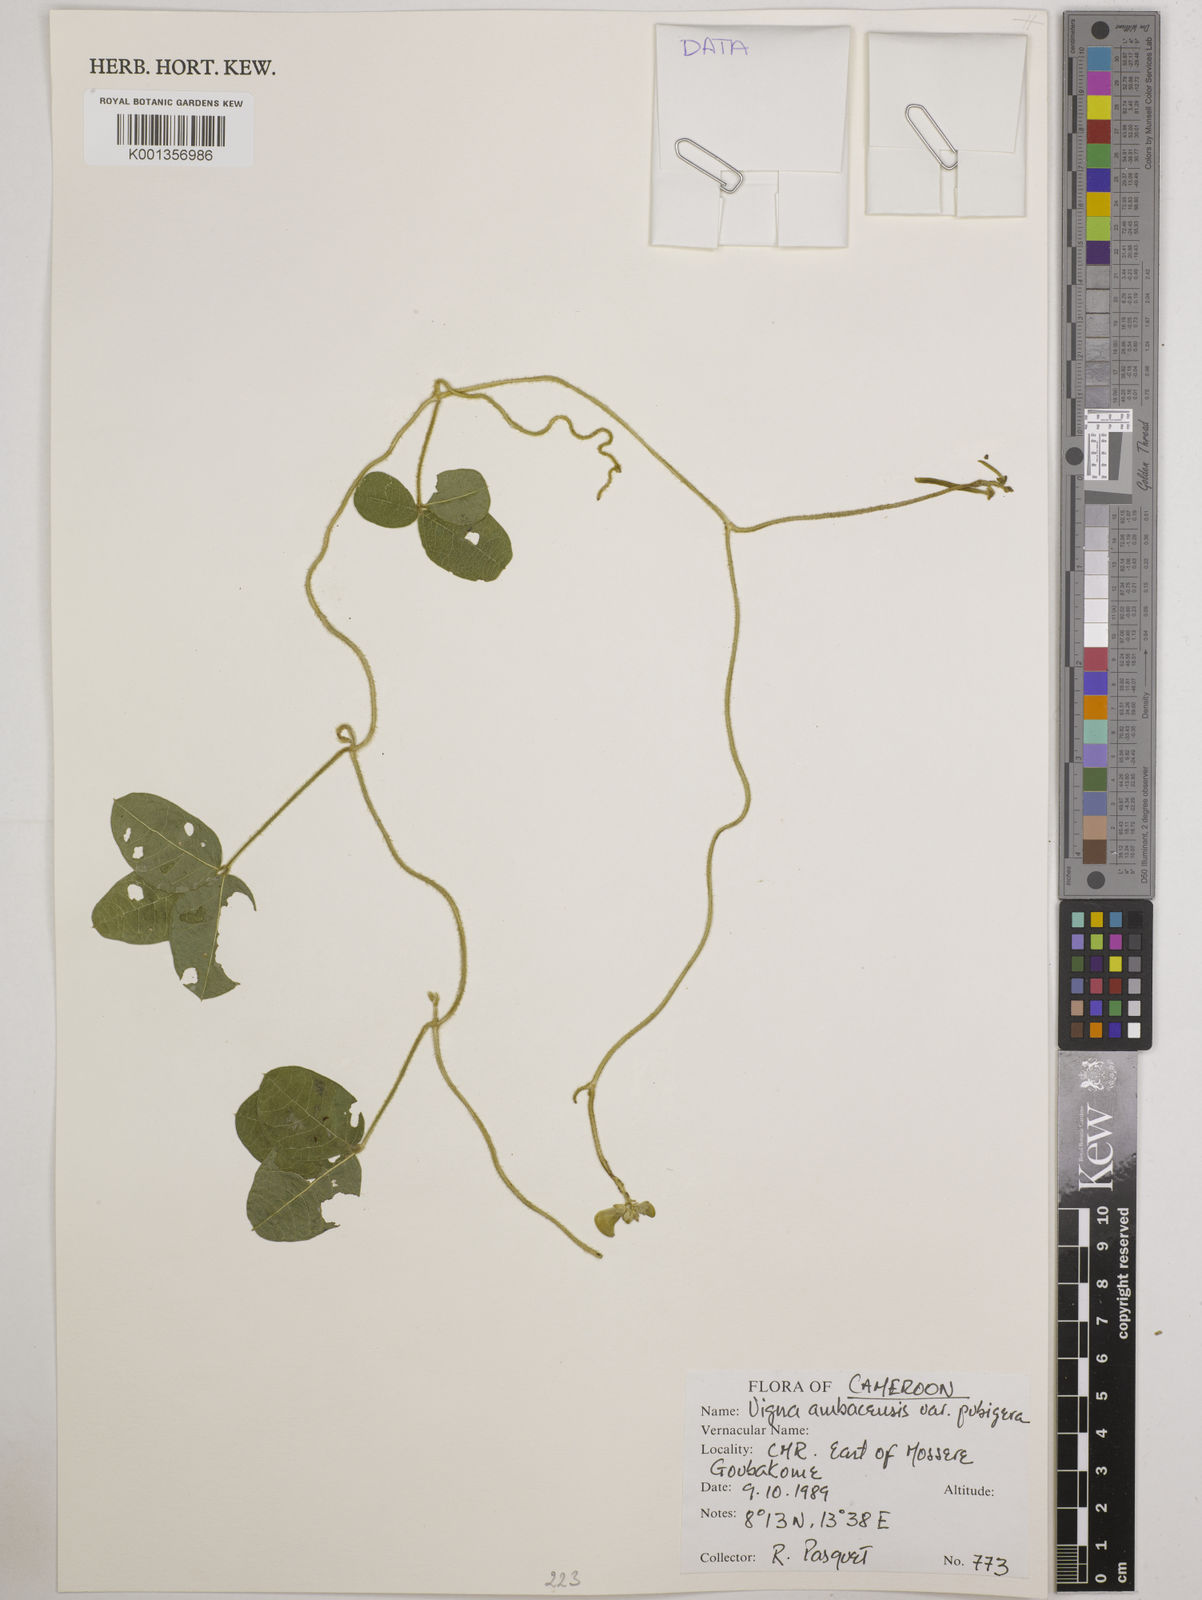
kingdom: Plantae
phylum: Tracheophyta
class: Magnoliopsida
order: Fabales
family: Fabaceae
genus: Vigna
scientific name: Vigna pubigera
